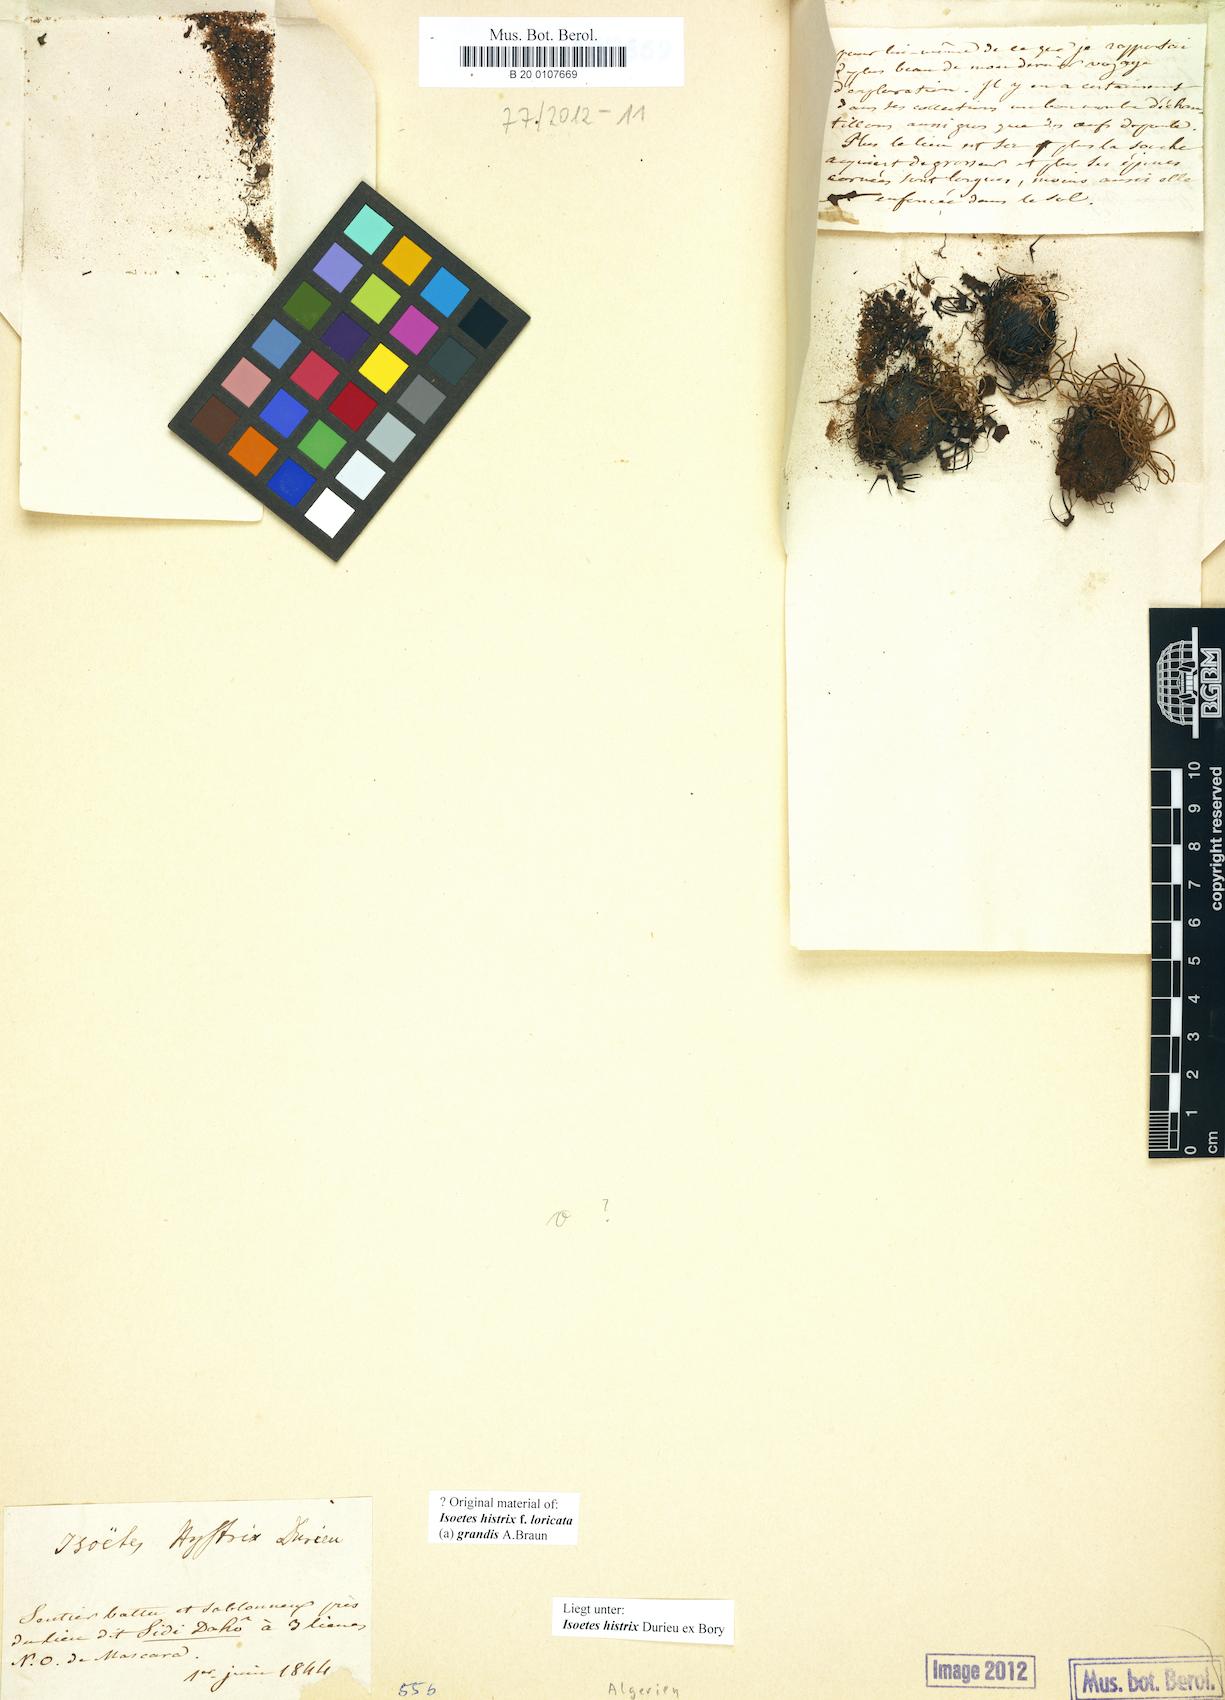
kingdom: Plantae
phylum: Tracheophyta
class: Lycopodiopsida
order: Isoetales
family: Isoetaceae
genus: Isoetes
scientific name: Isoetes histrix
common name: Land quillwort
